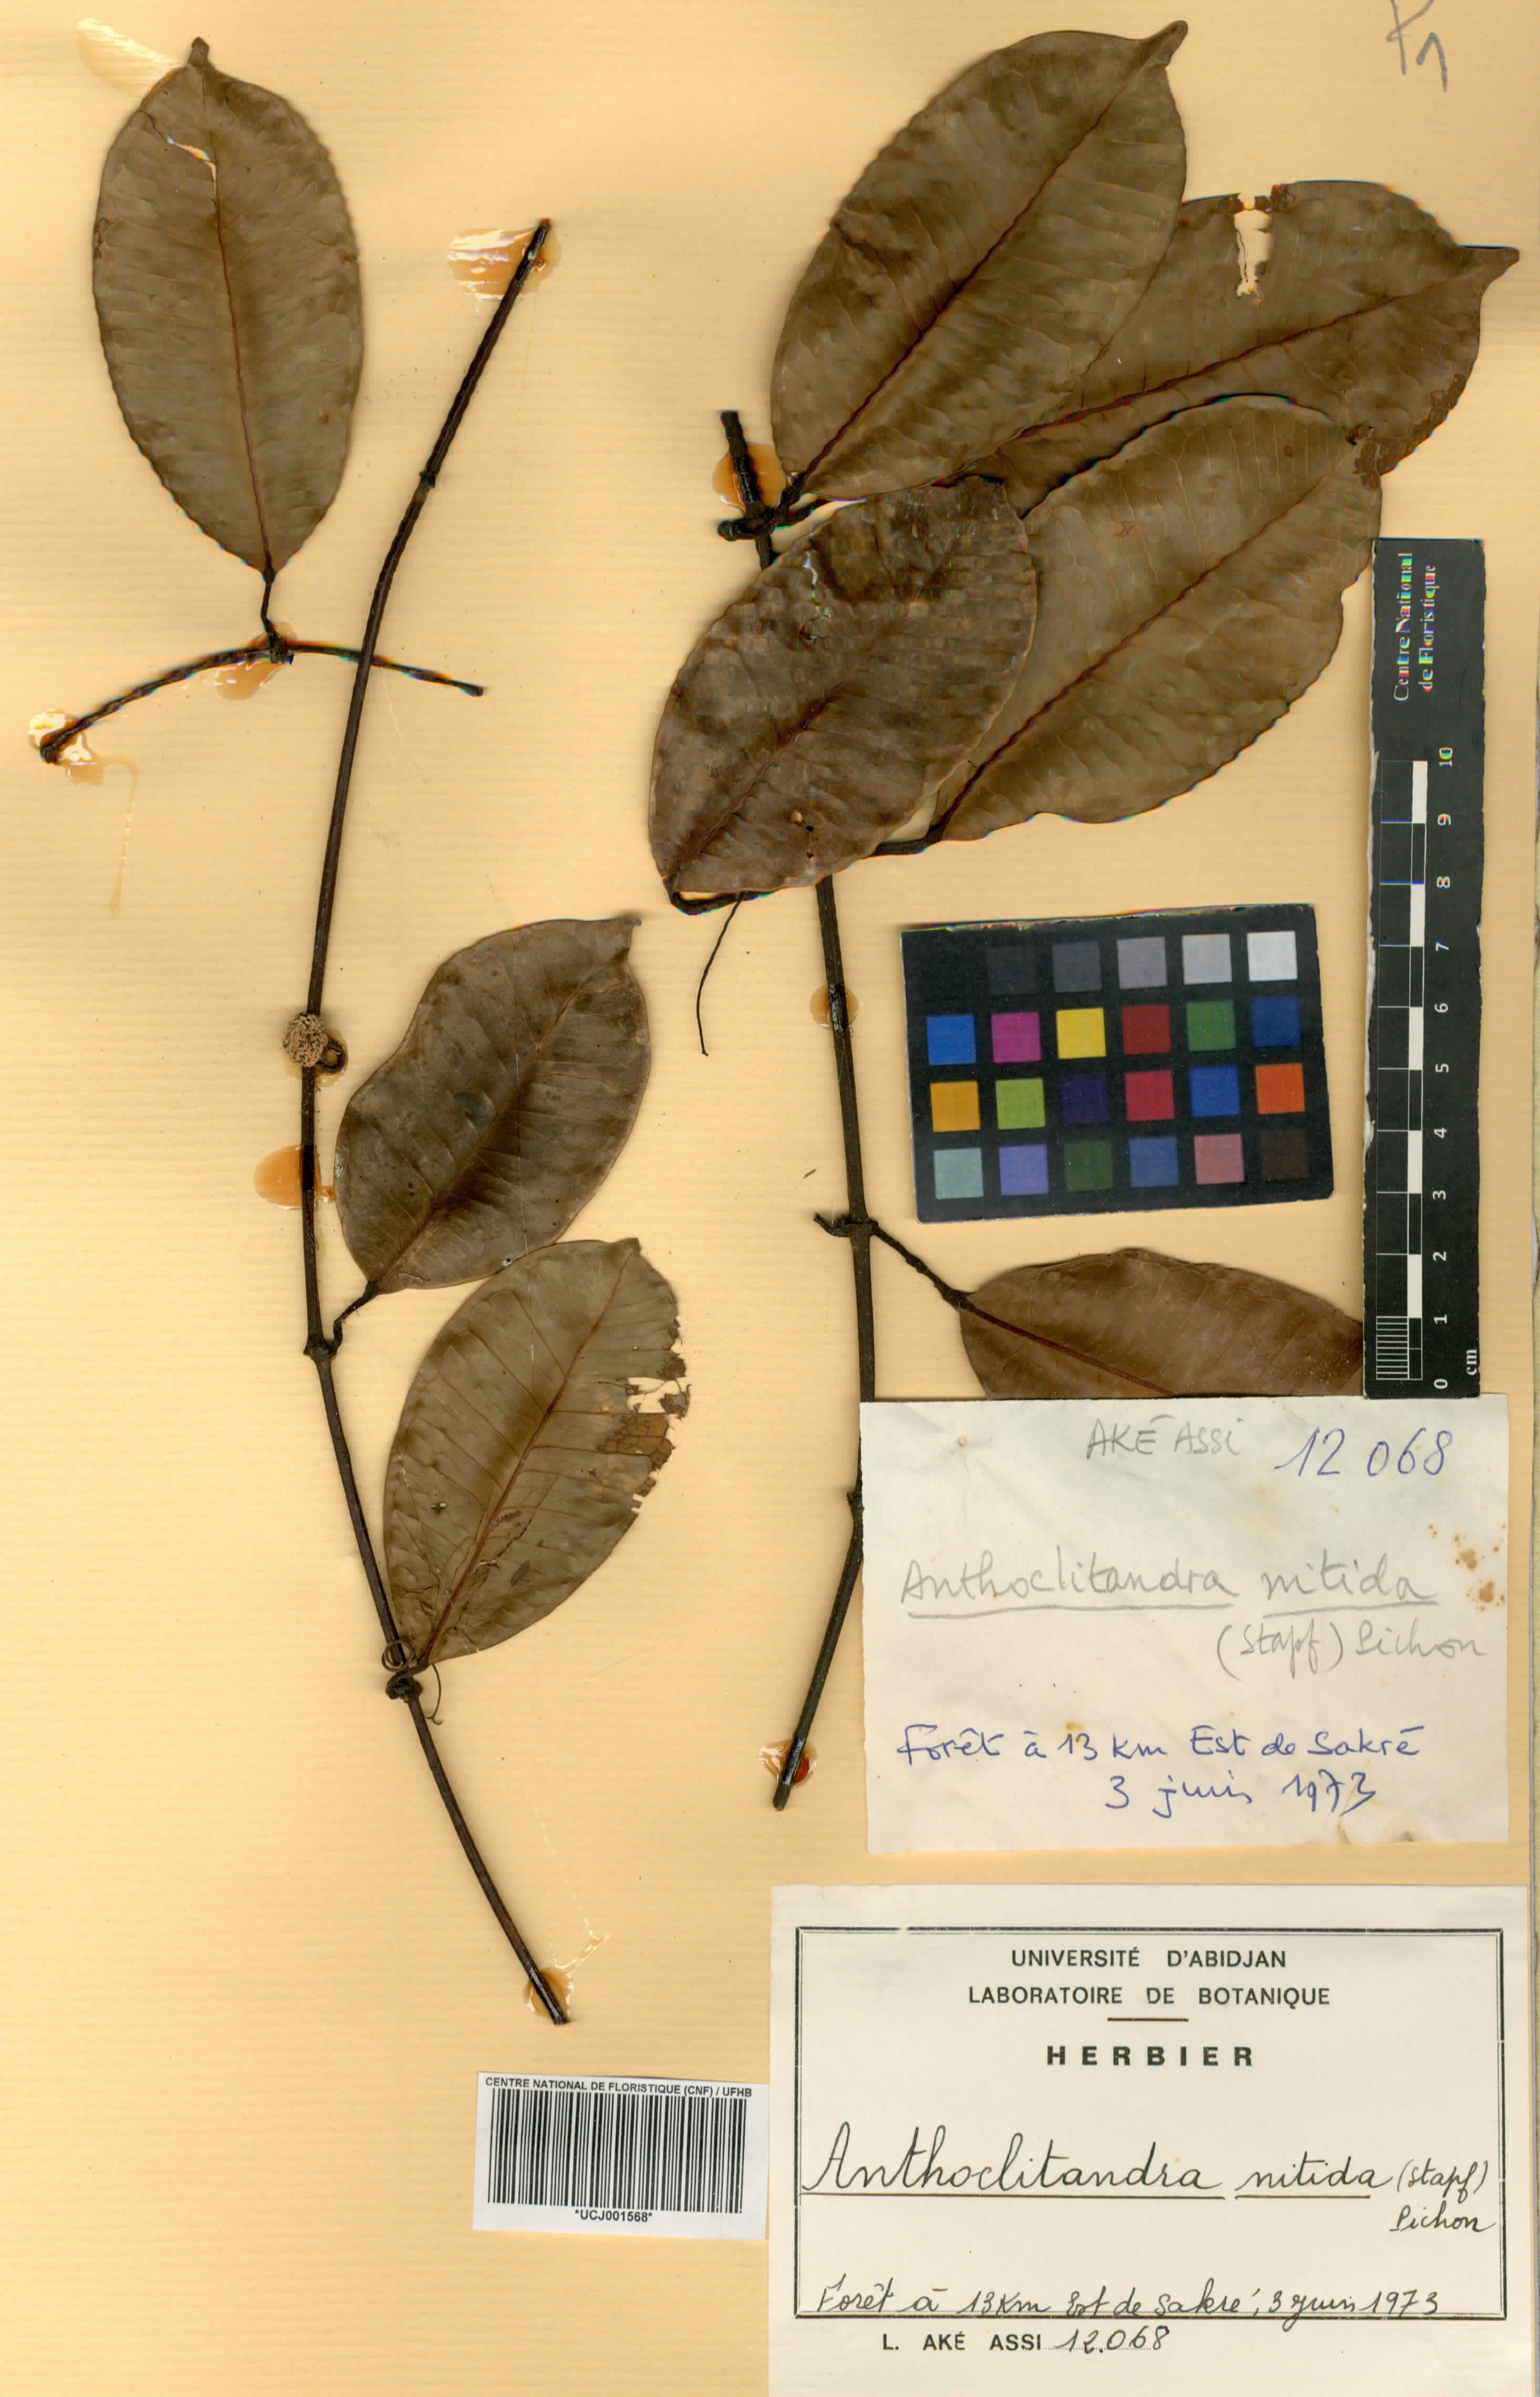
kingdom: Plantae
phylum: Tracheophyta
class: Magnoliopsida
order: Gentianales
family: Apocynaceae
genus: Landolphia
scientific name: Landolphia nitidula
